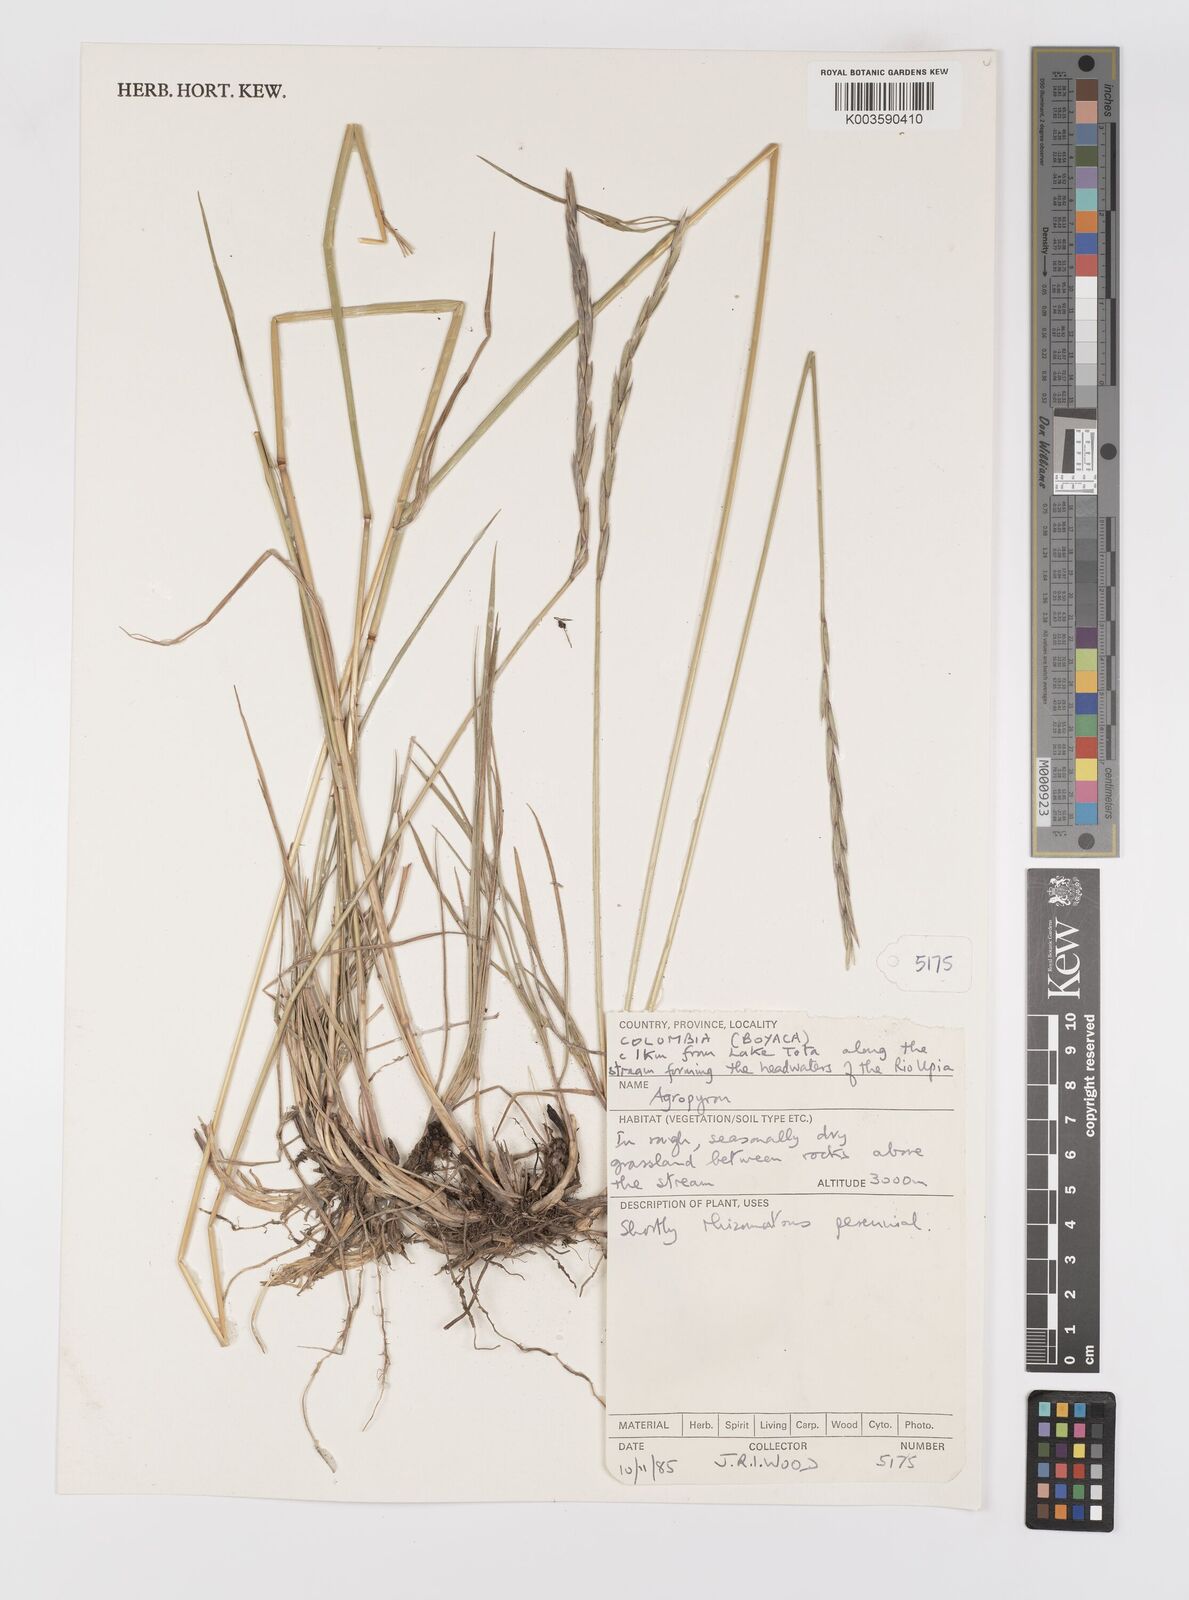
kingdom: Plantae
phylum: Tracheophyta
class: Liliopsida
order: Poales
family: Poaceae
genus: Elymus
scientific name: Elymus cordilleranus
